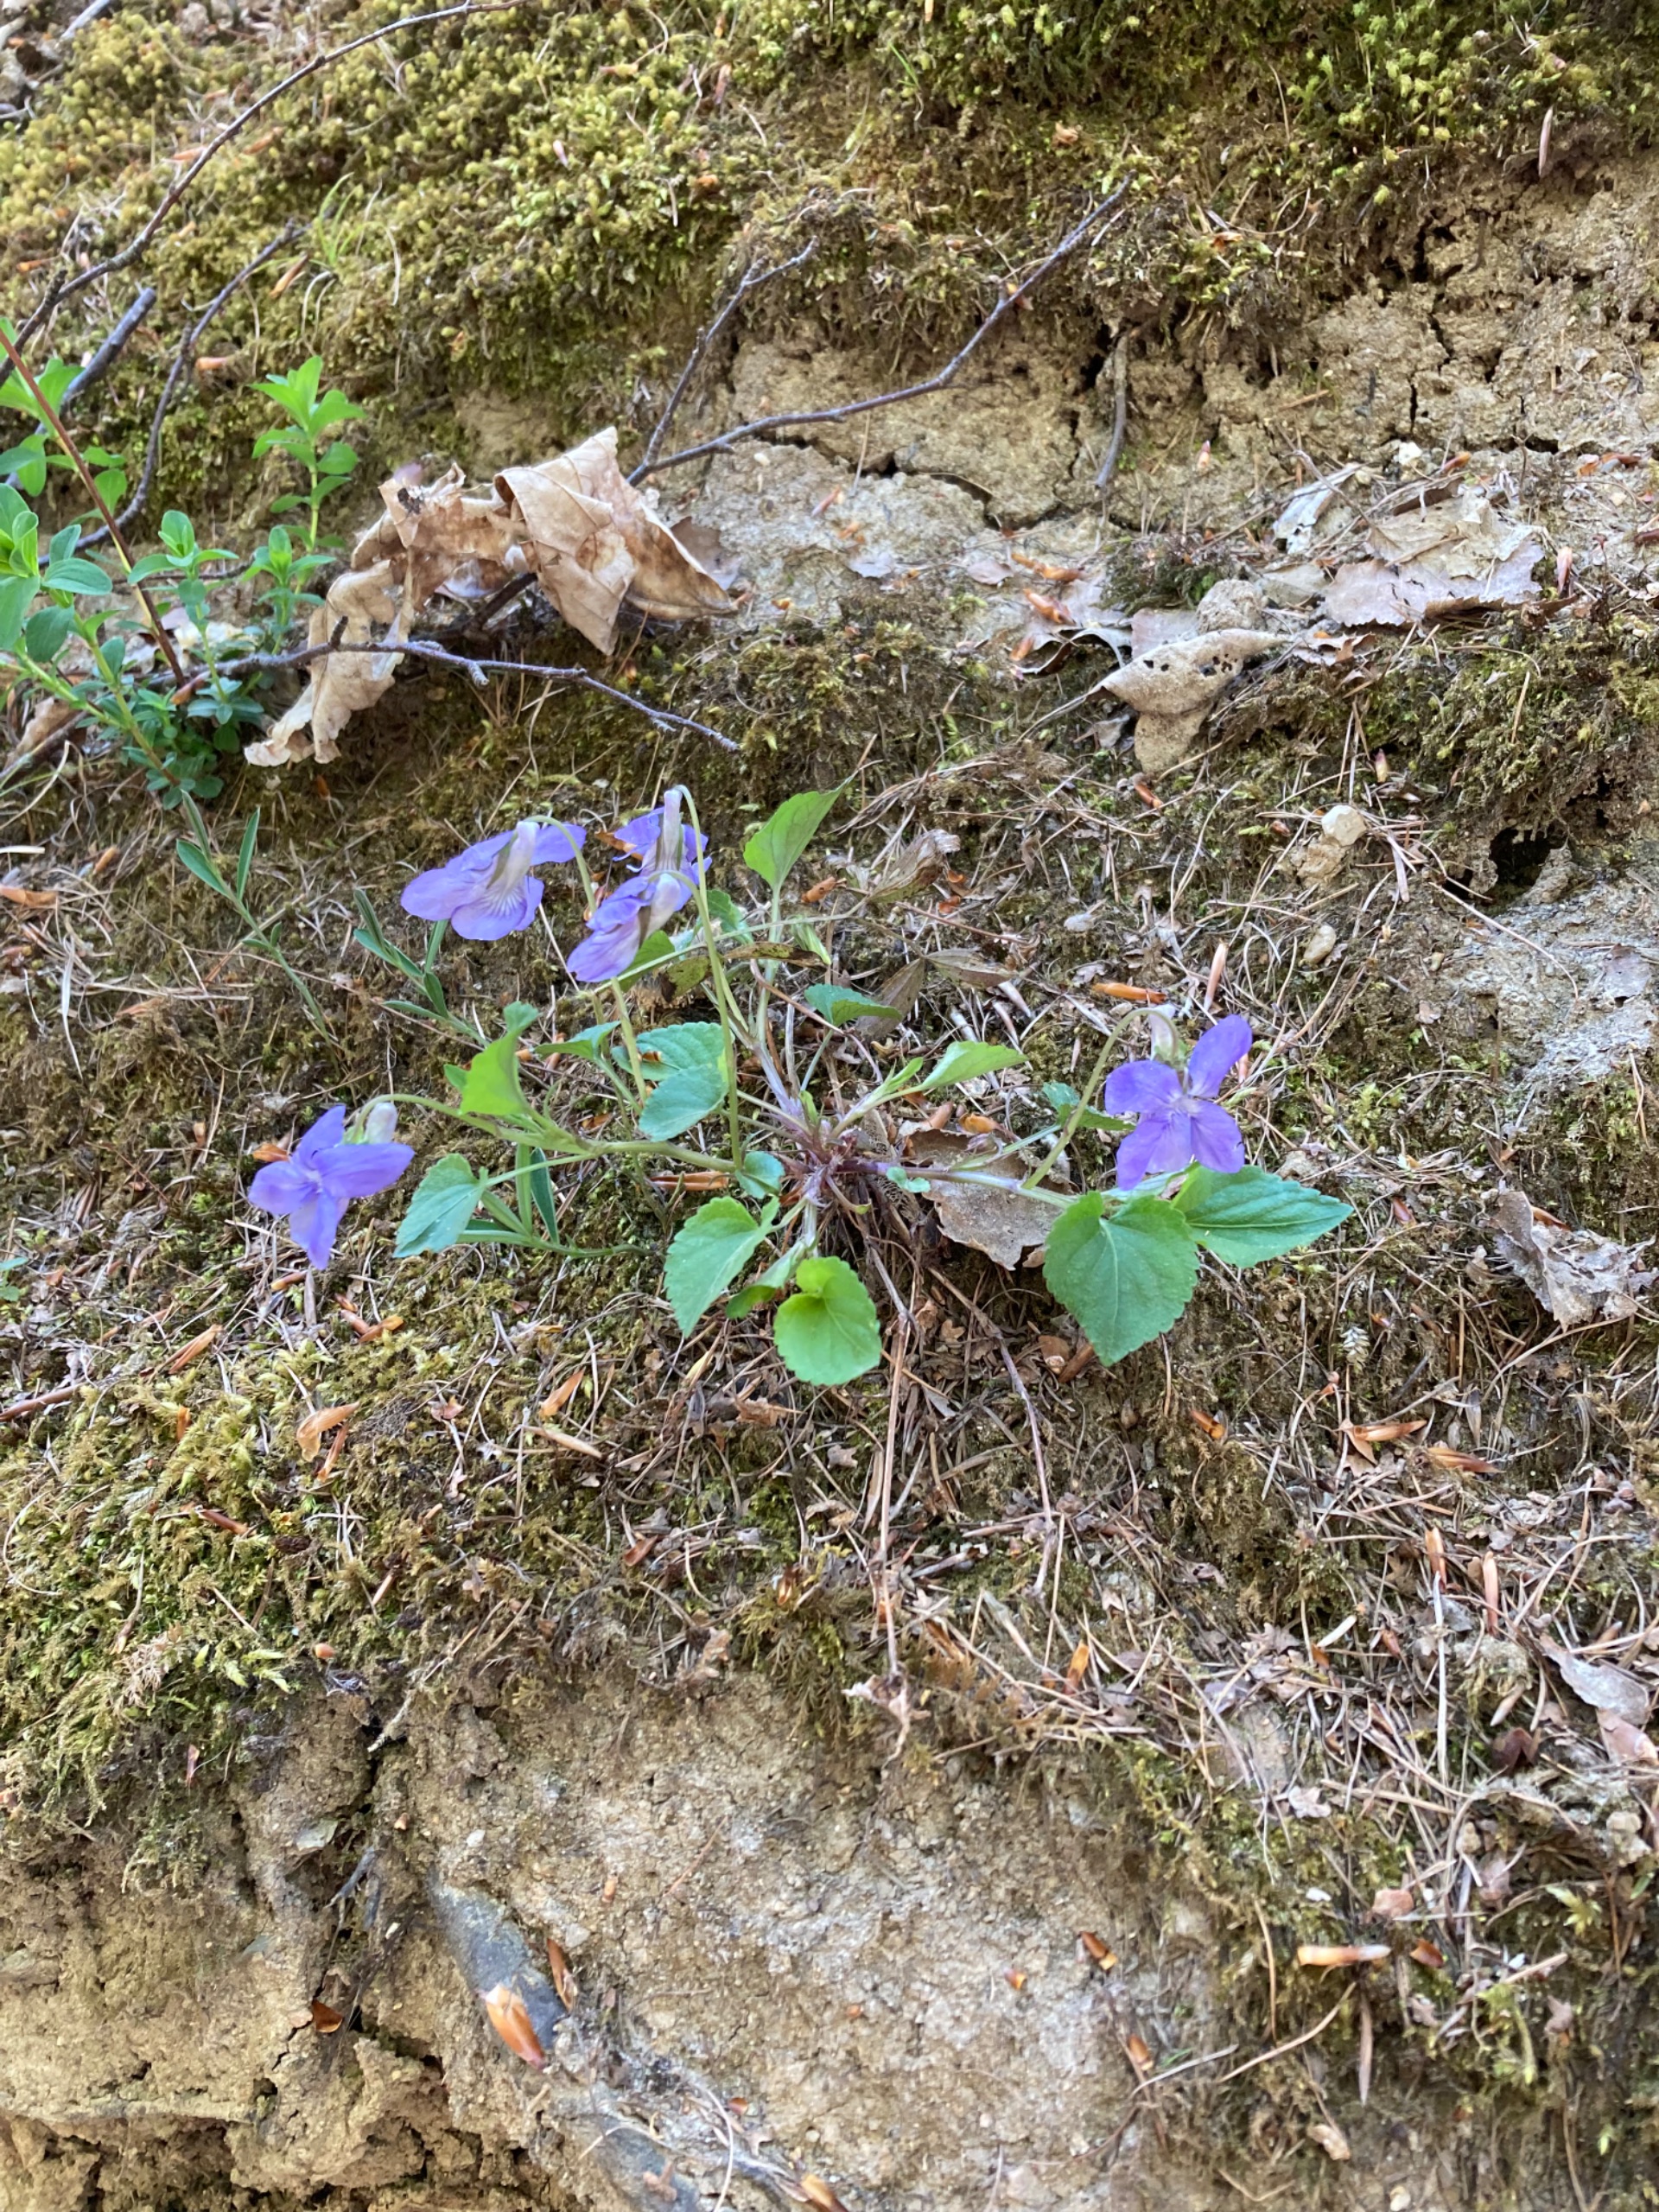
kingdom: Plantae
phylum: Tracheophyta
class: Magnoliopsida
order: Malpighiales
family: Violaceae
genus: Viola
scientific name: Viola riviniana
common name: Krat-viol
